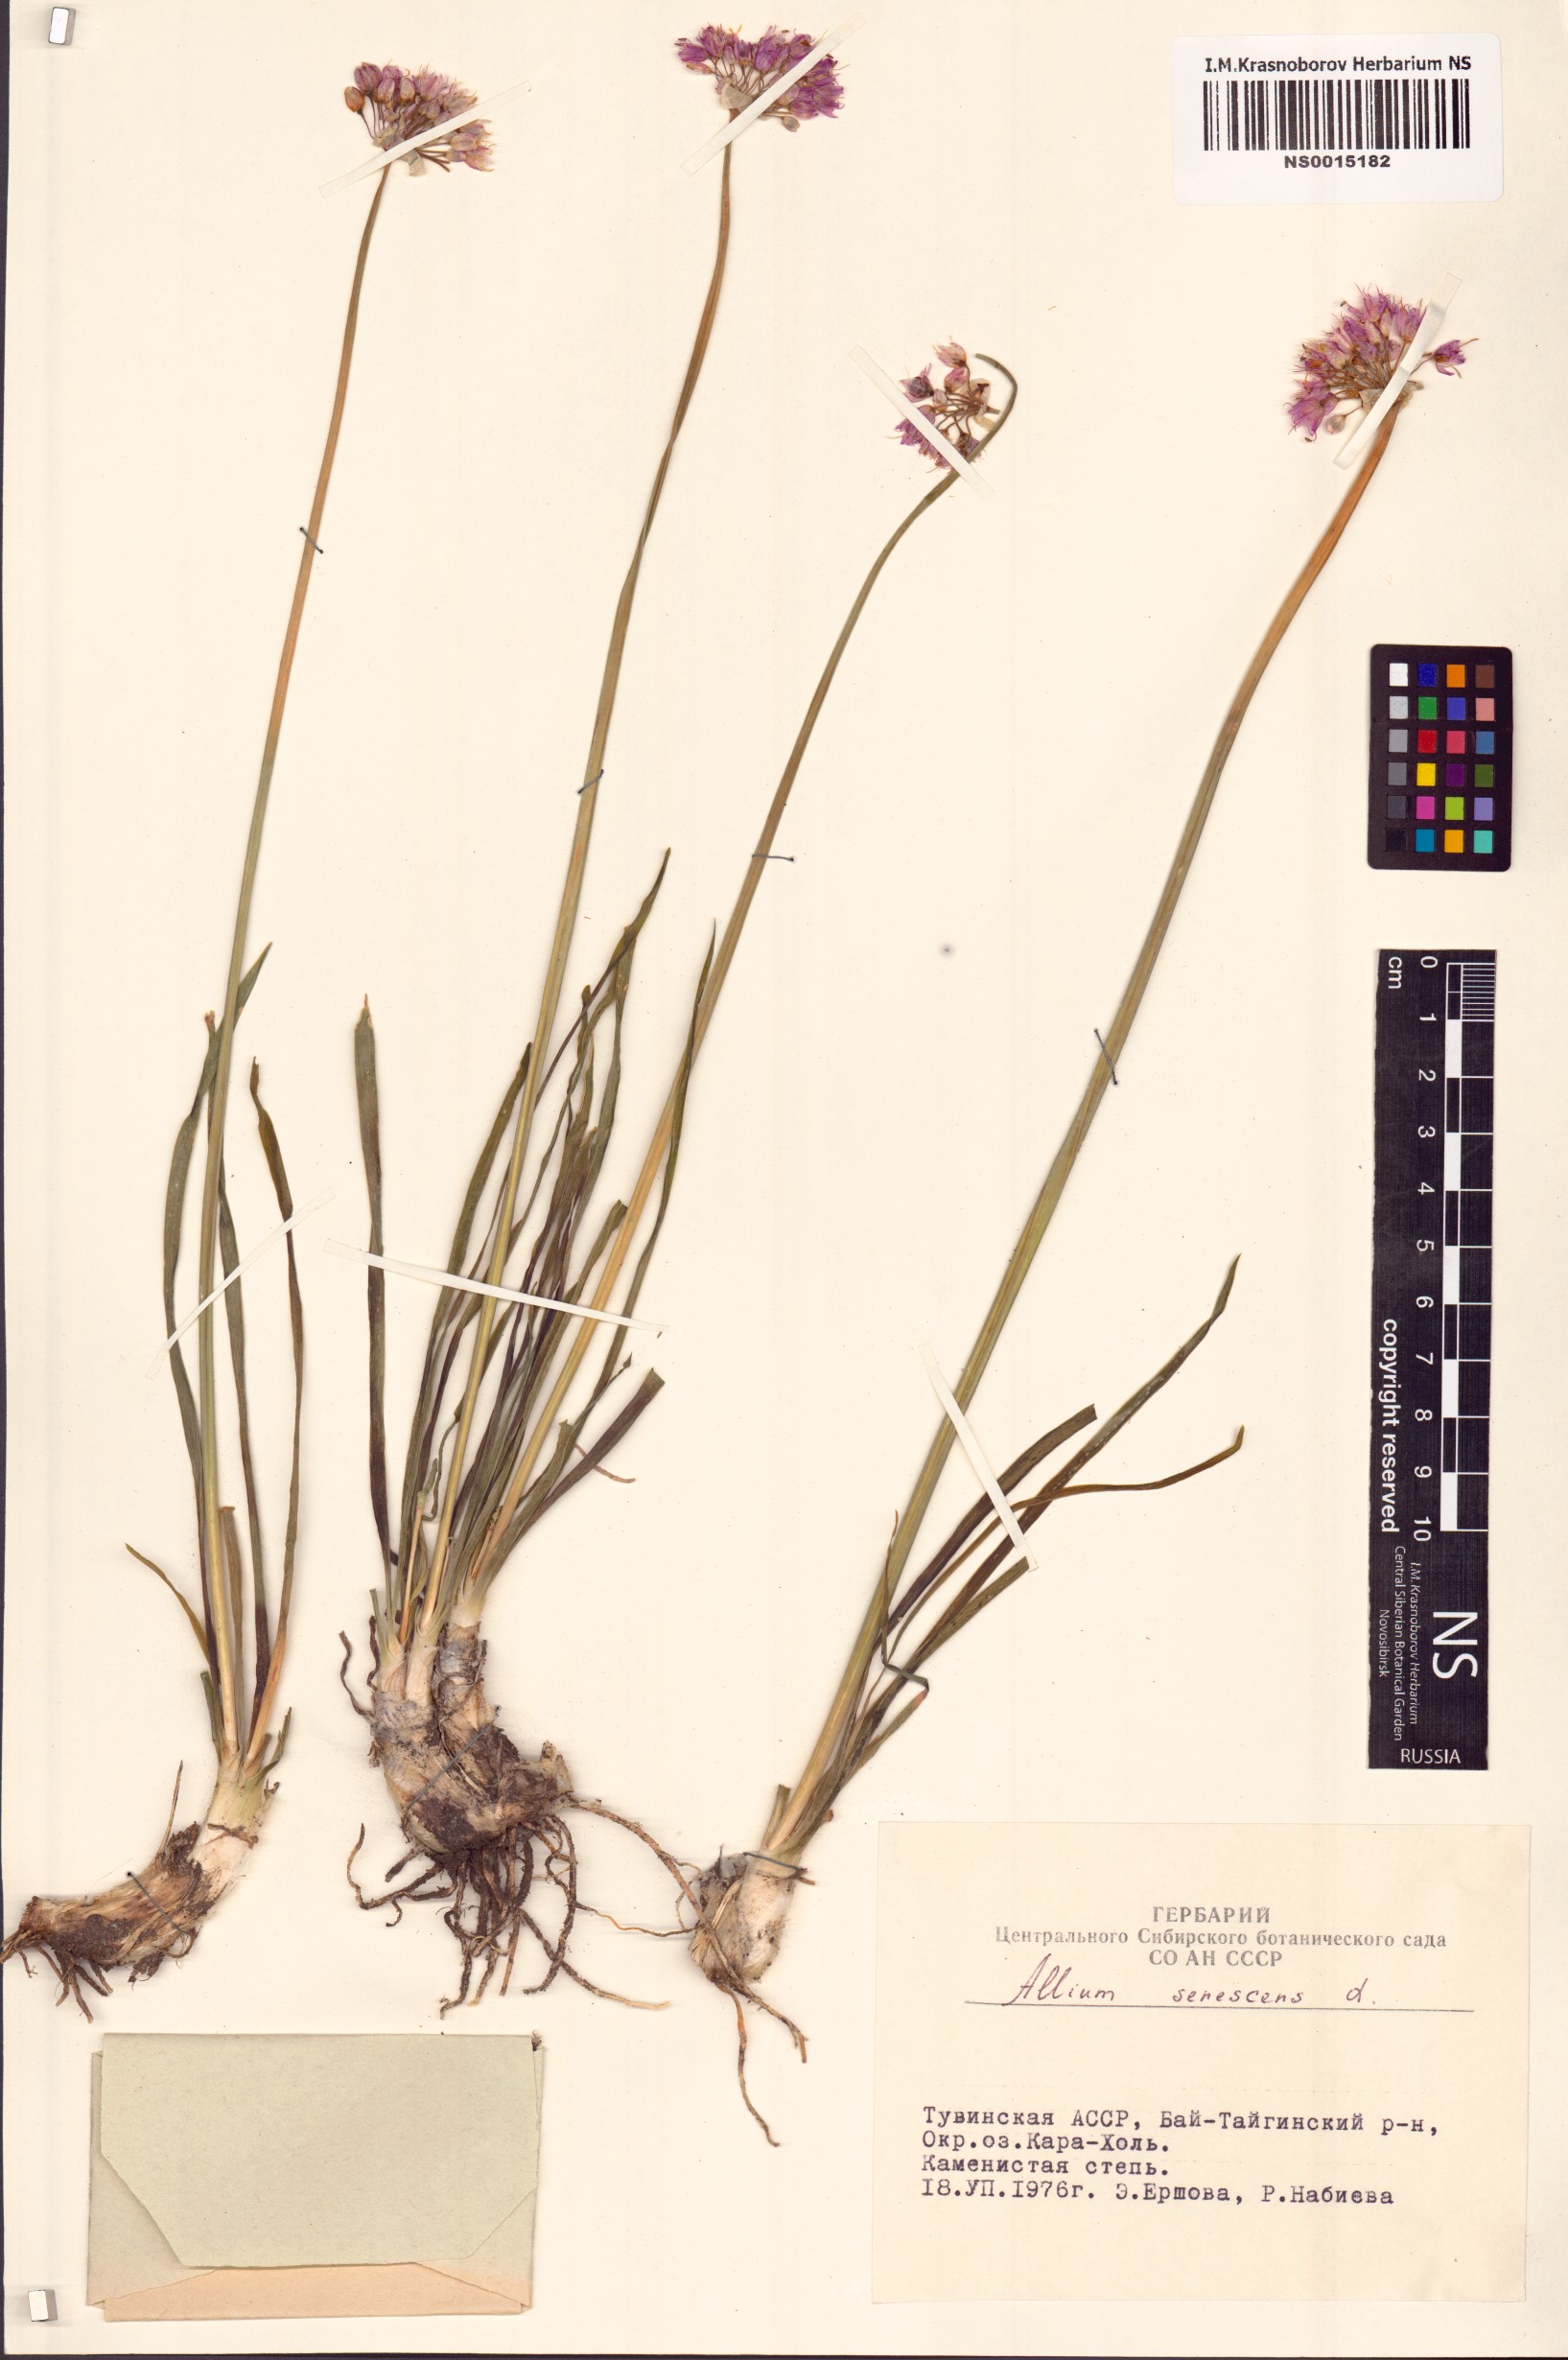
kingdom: Plantae
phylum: Tracheophyta
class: Liliopsida
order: Asparagales
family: Amaryllidaceae
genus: Allium
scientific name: Allium senescens
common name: German garlic
